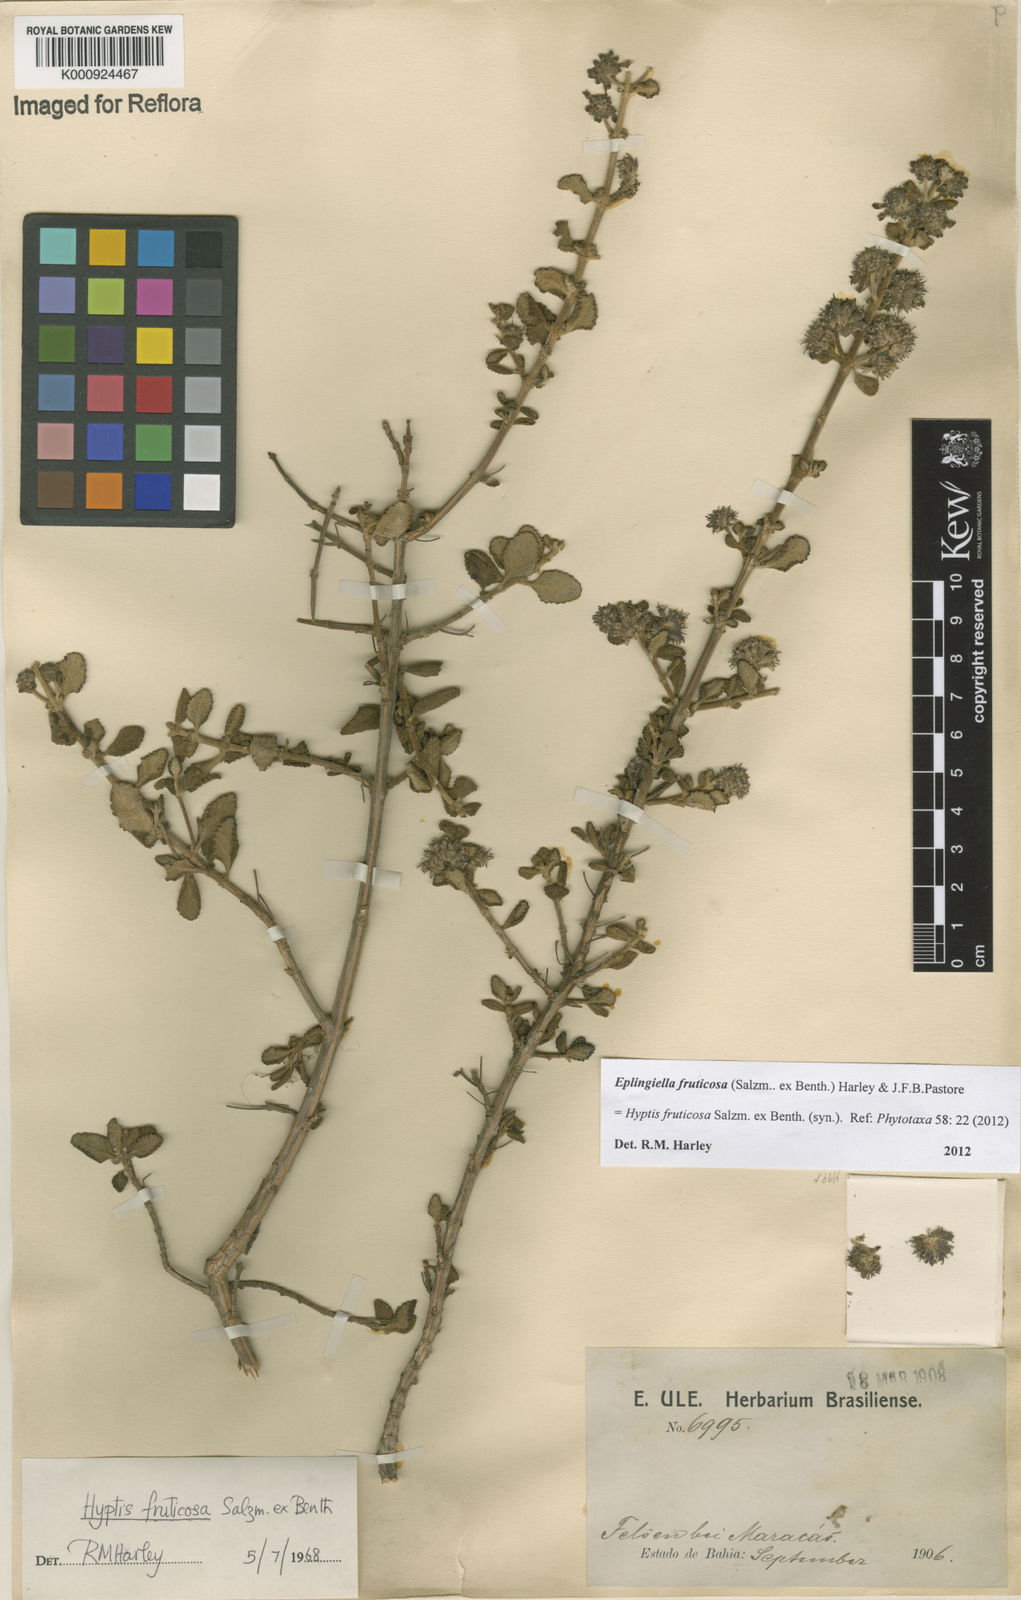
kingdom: Plantae
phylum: Tracheophyta
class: Magnoliopsida
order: Lamiales
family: Lamiaceae
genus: Eplingiella
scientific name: Eplingiella fruticosa
